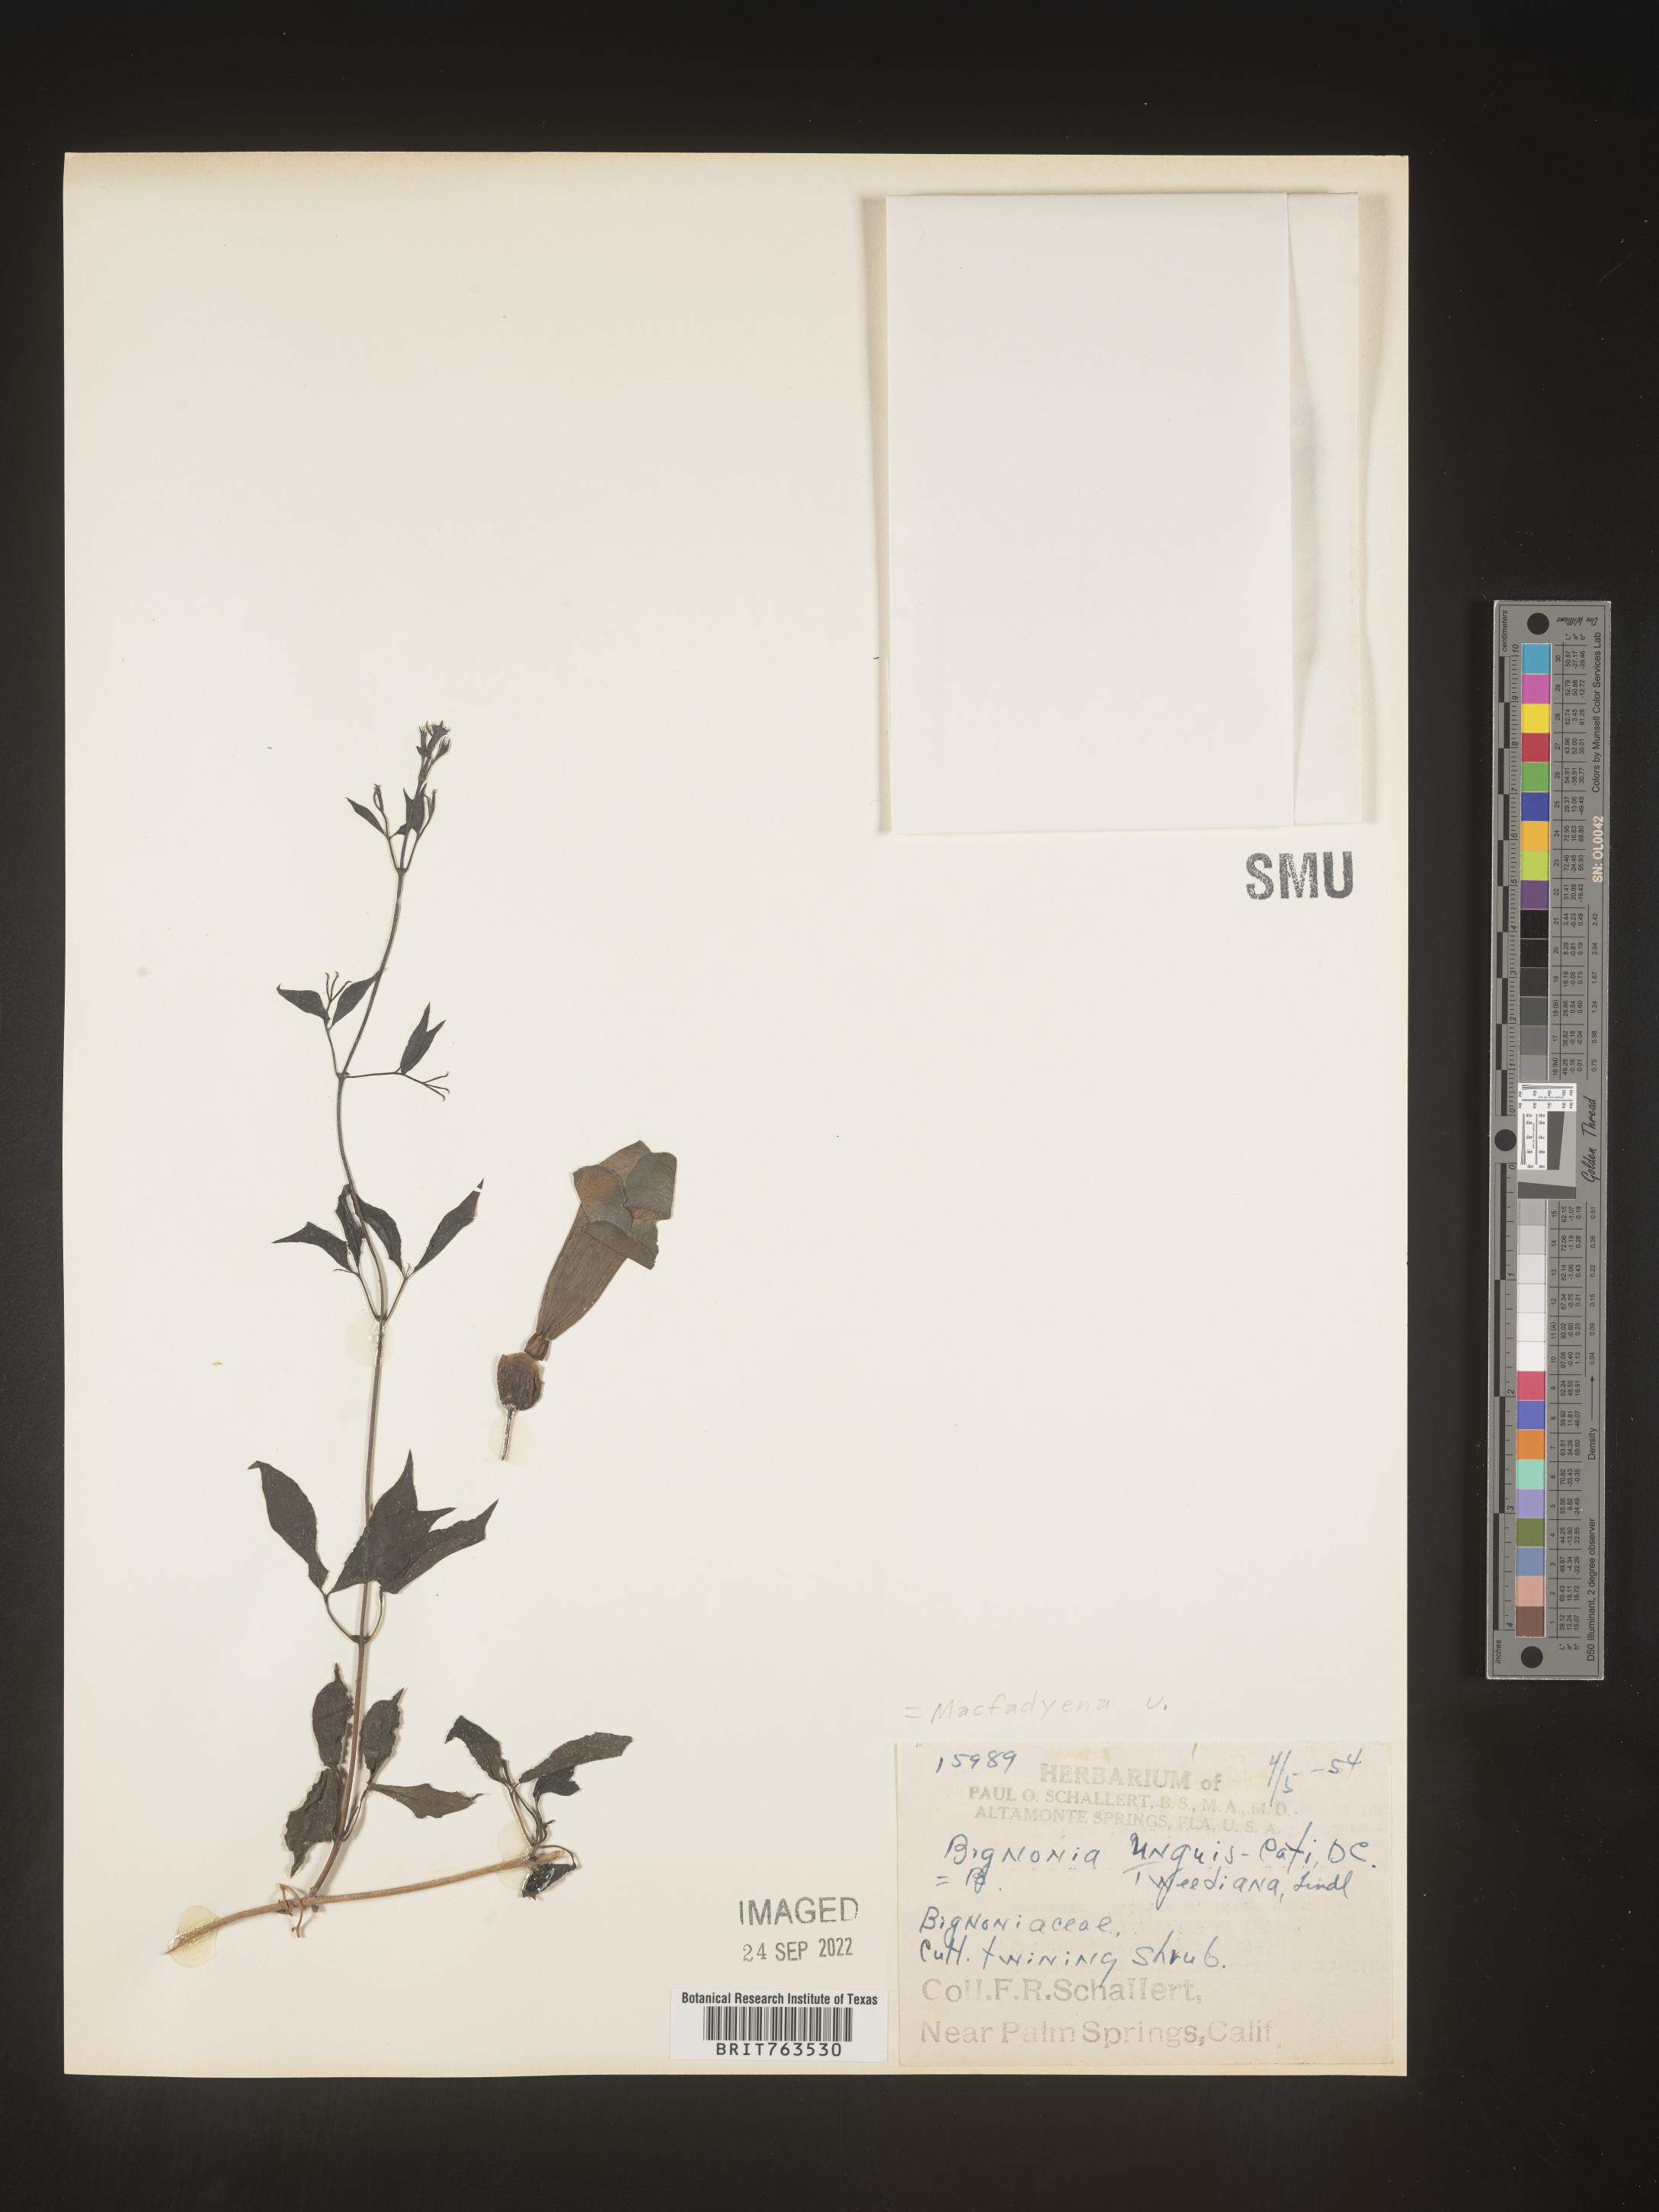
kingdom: Animalia
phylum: Chordata
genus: Macfadyena
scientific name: Macfadyena
